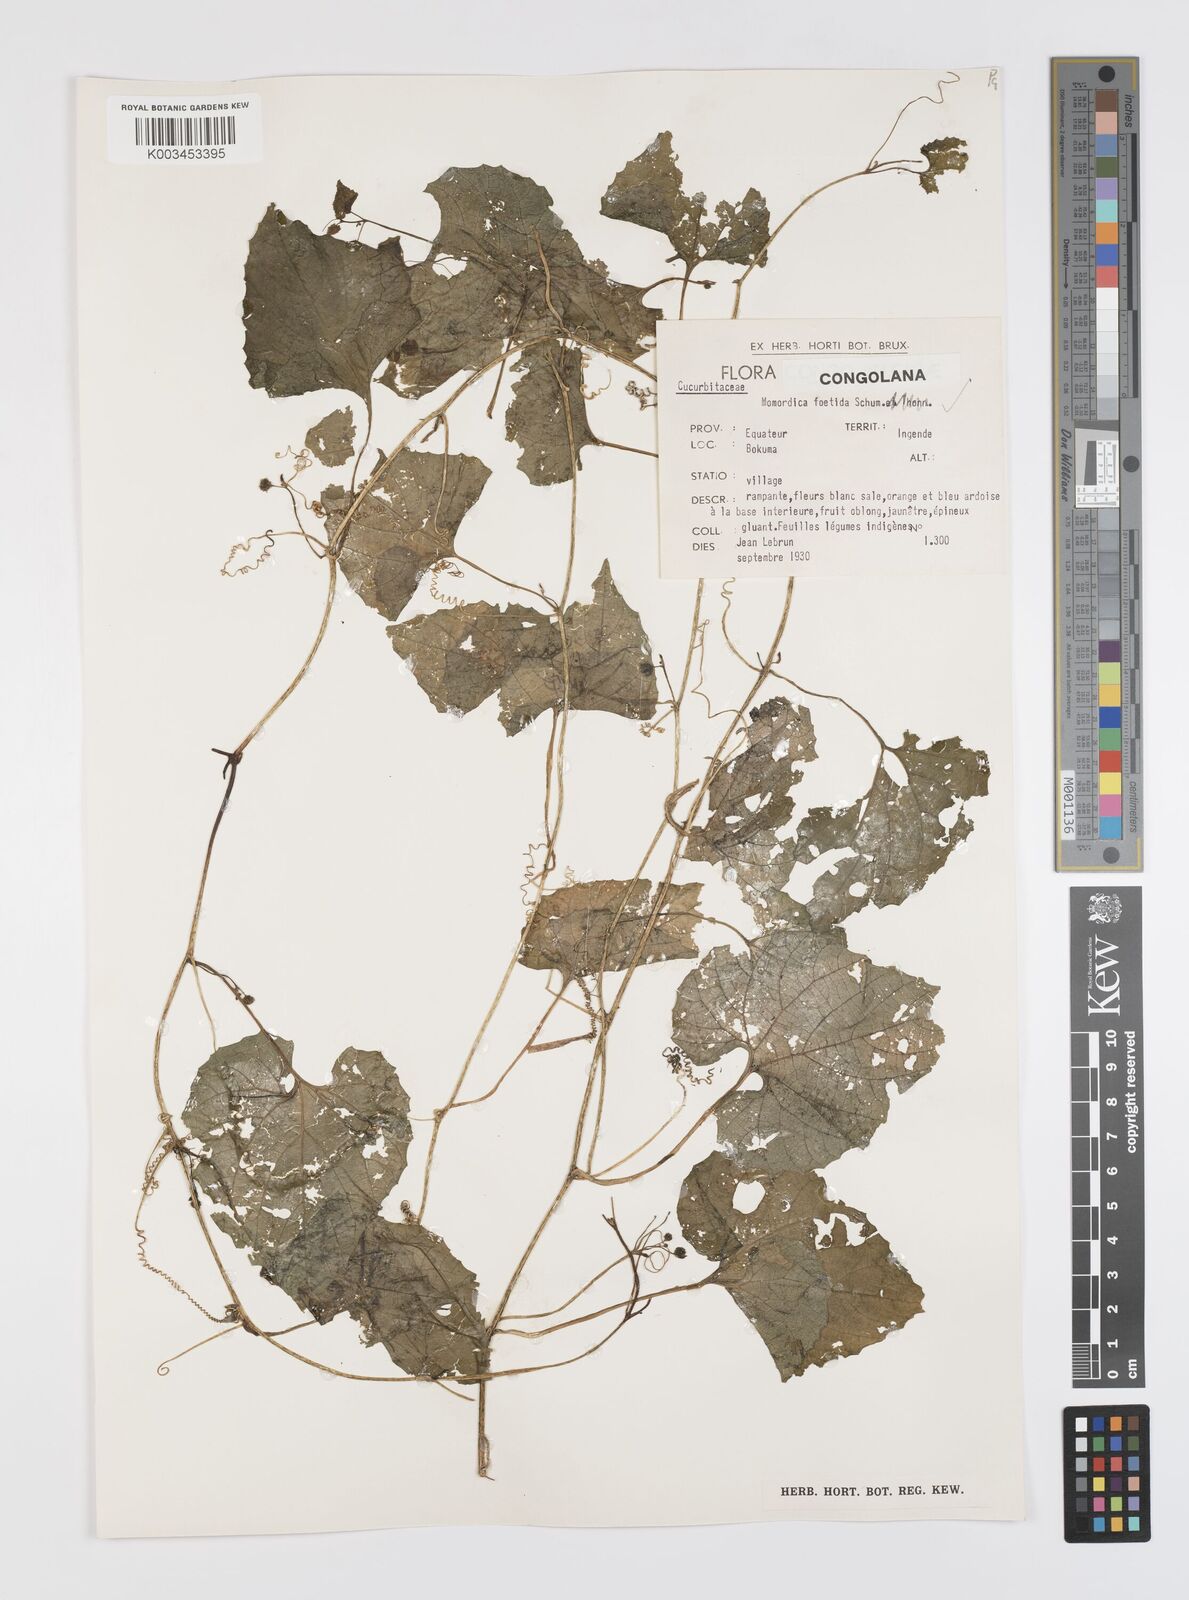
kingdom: Plantae
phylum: Tracheophyta
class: Magnoliopsida
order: Cucurbitales
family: Cucurbitaceae
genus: Momordica
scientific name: Momordica foetida
